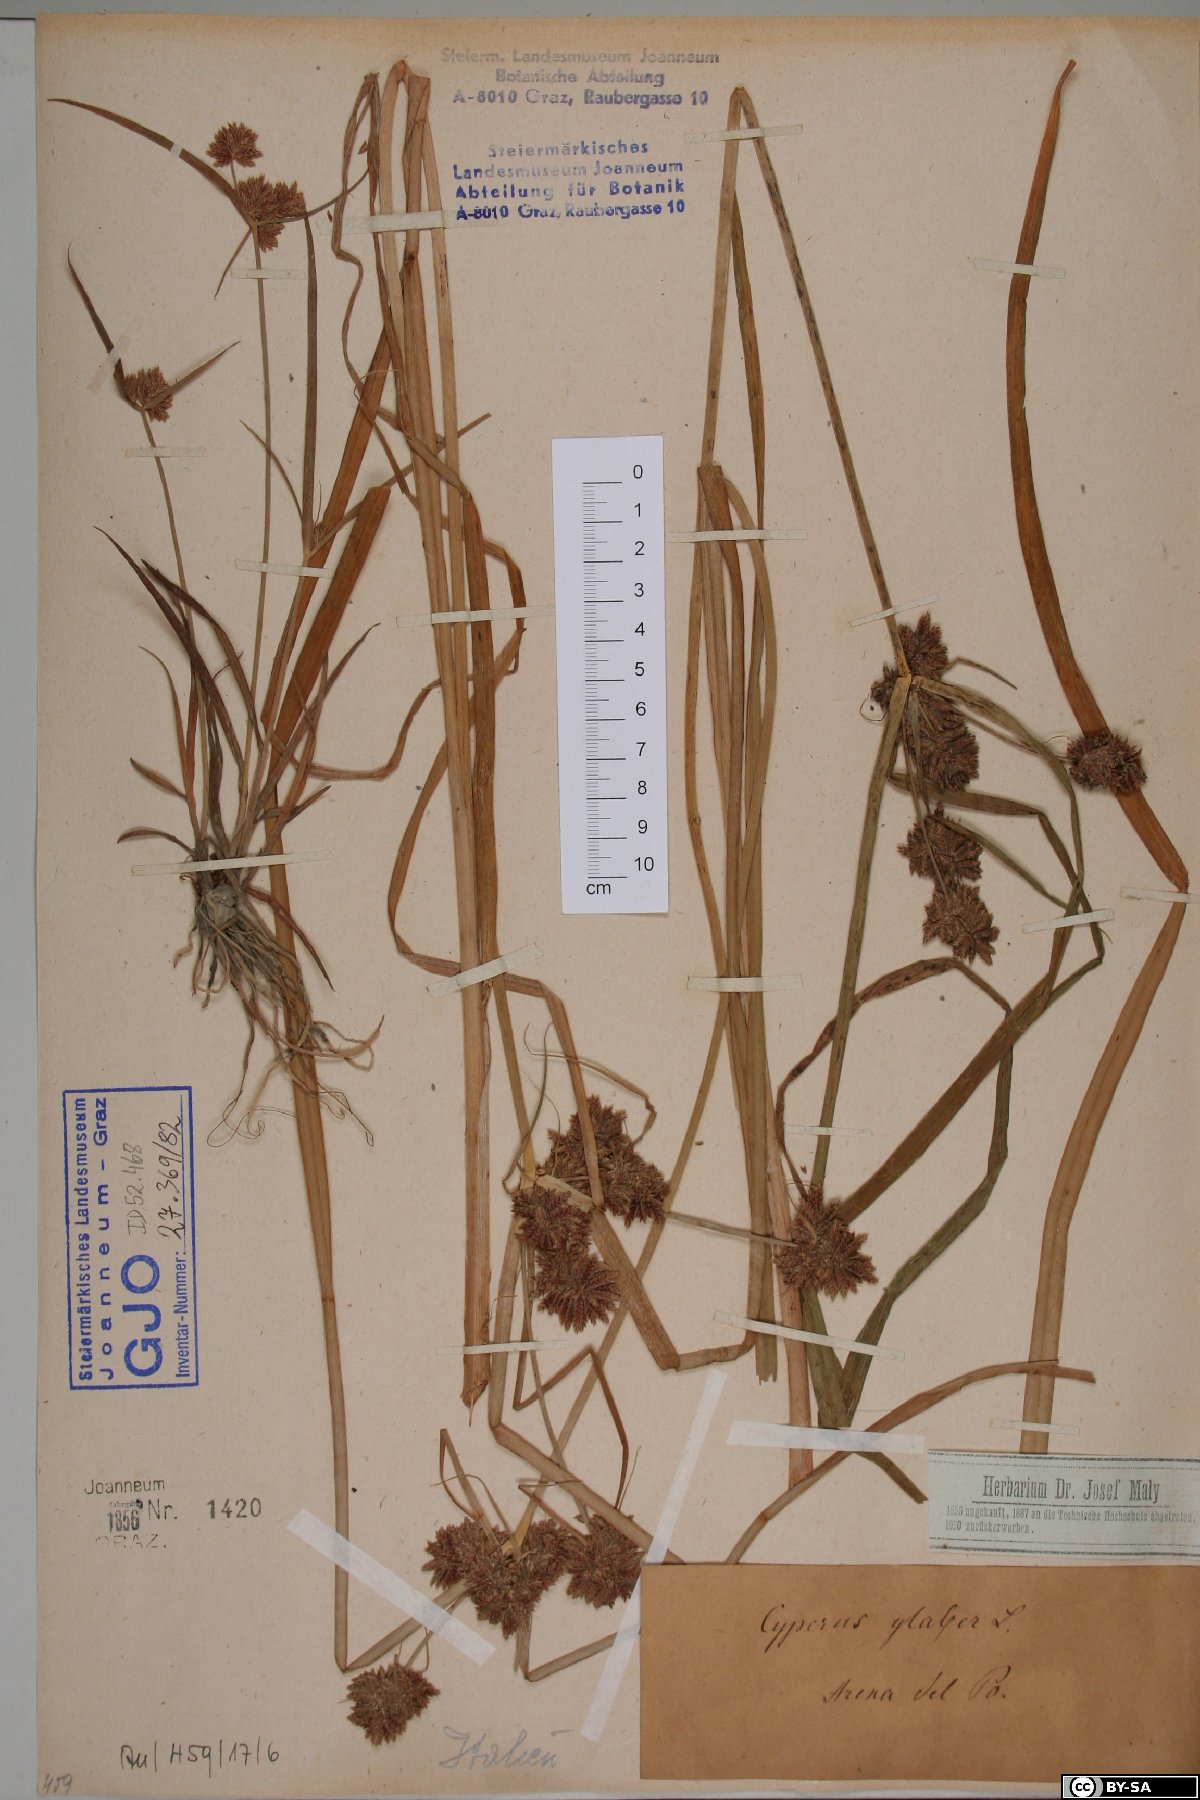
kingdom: Plantae
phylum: Tracheophyta
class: Liliopsida
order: Poales
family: Cyperaceae
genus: Cyperus
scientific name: Cyperus glaber
